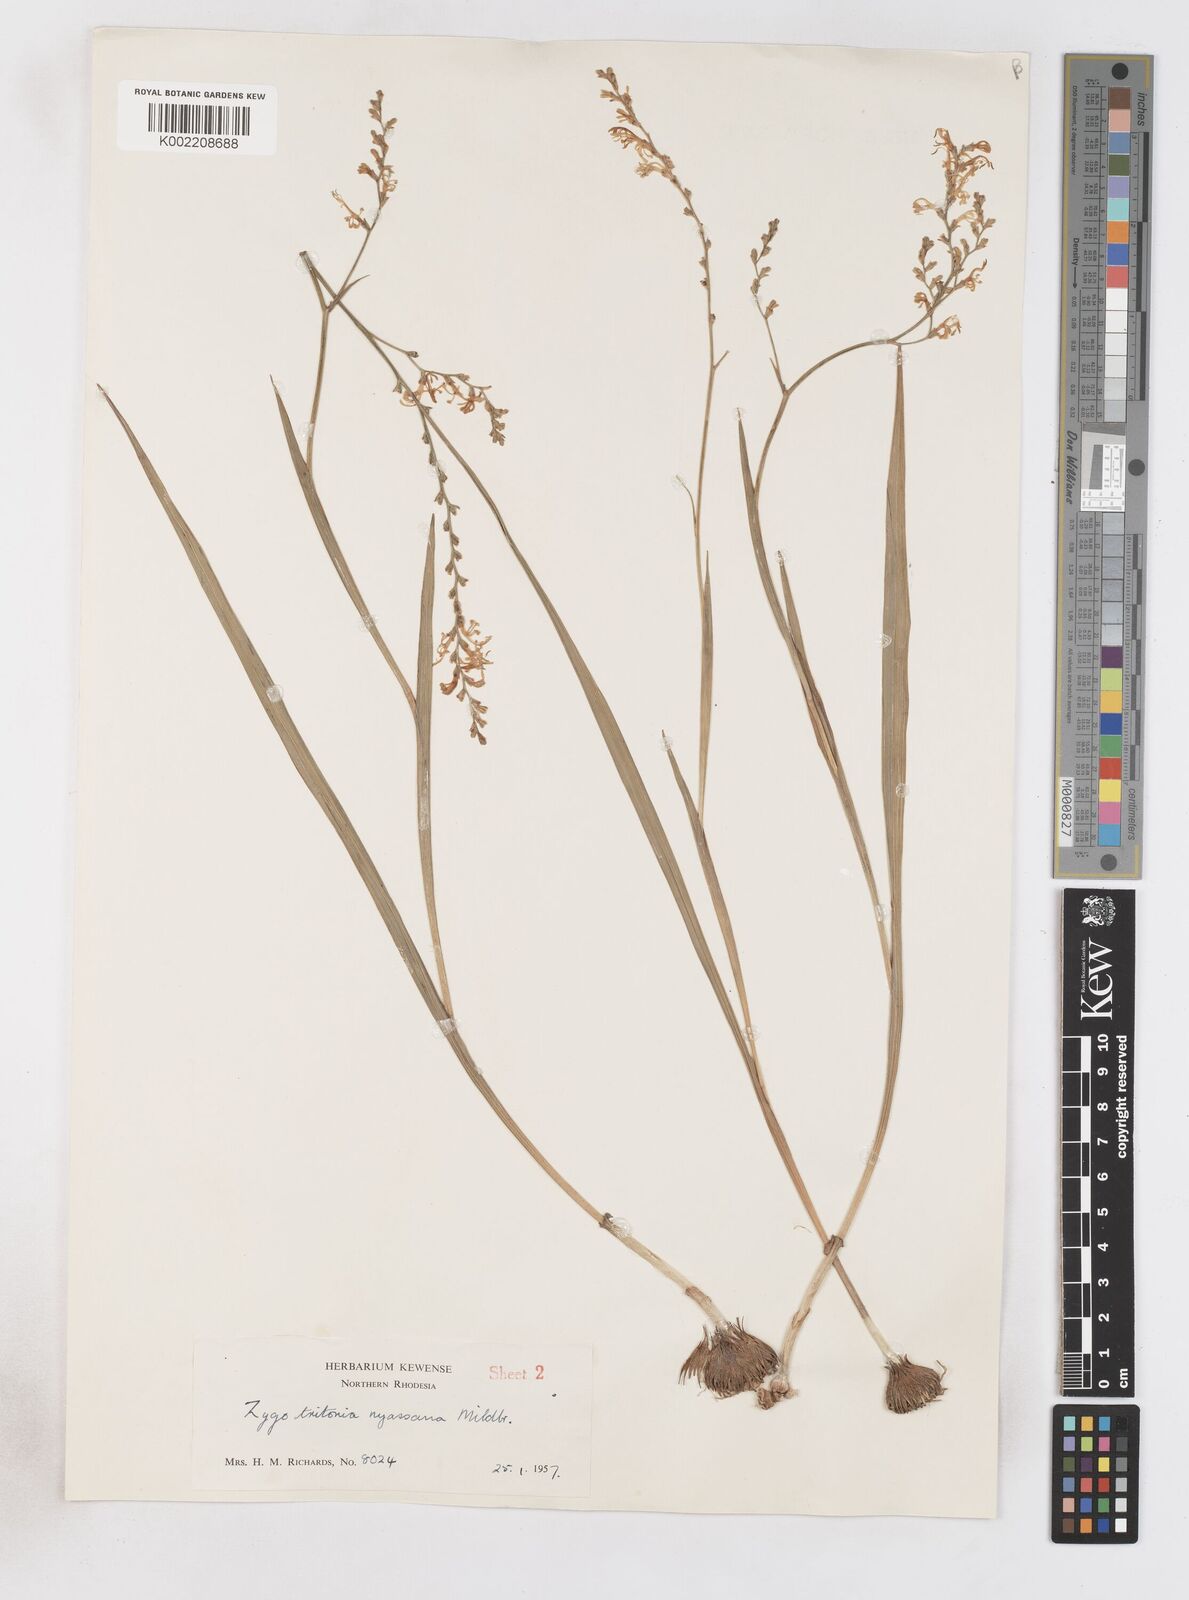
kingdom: Plantae
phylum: Tracheophyta
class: Liliopsida
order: Asparagales
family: Iridaceae
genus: Zygotritonia
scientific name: Zygotritonia nyassana
